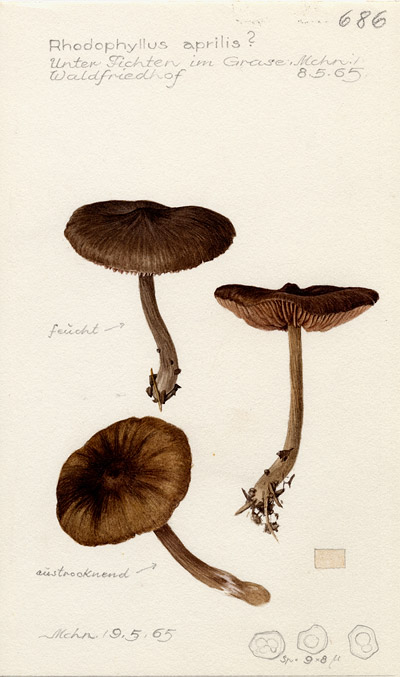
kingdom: Fungi
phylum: Basidiomycota
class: Agaricomycetes
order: Agaricales
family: Entolomataceae
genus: Entoloma
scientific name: Entoloma aprile
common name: Aprilrødspore
